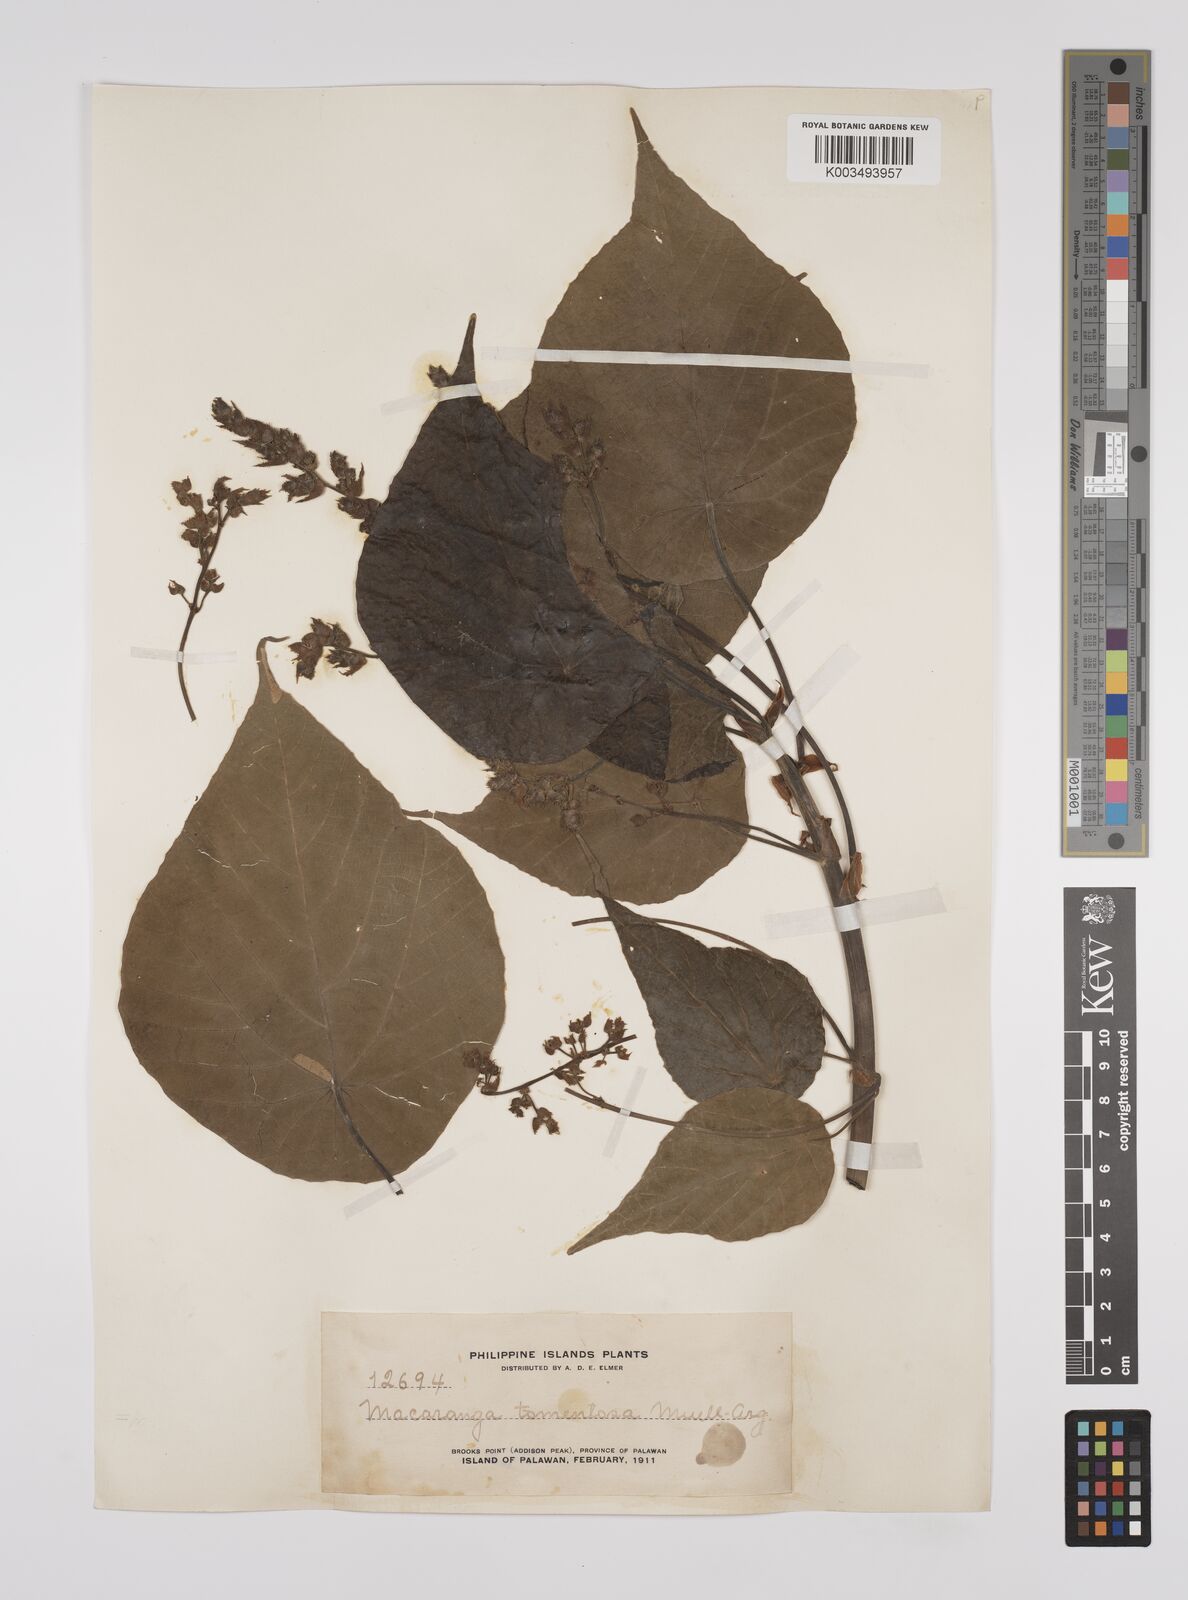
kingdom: Plantae
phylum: Tracheophyta
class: Magnoliopsida
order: Malpighiales
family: Euphorbiaceae
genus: Macaranga
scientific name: Macaranga tanarius
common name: Parasol leaf tree
